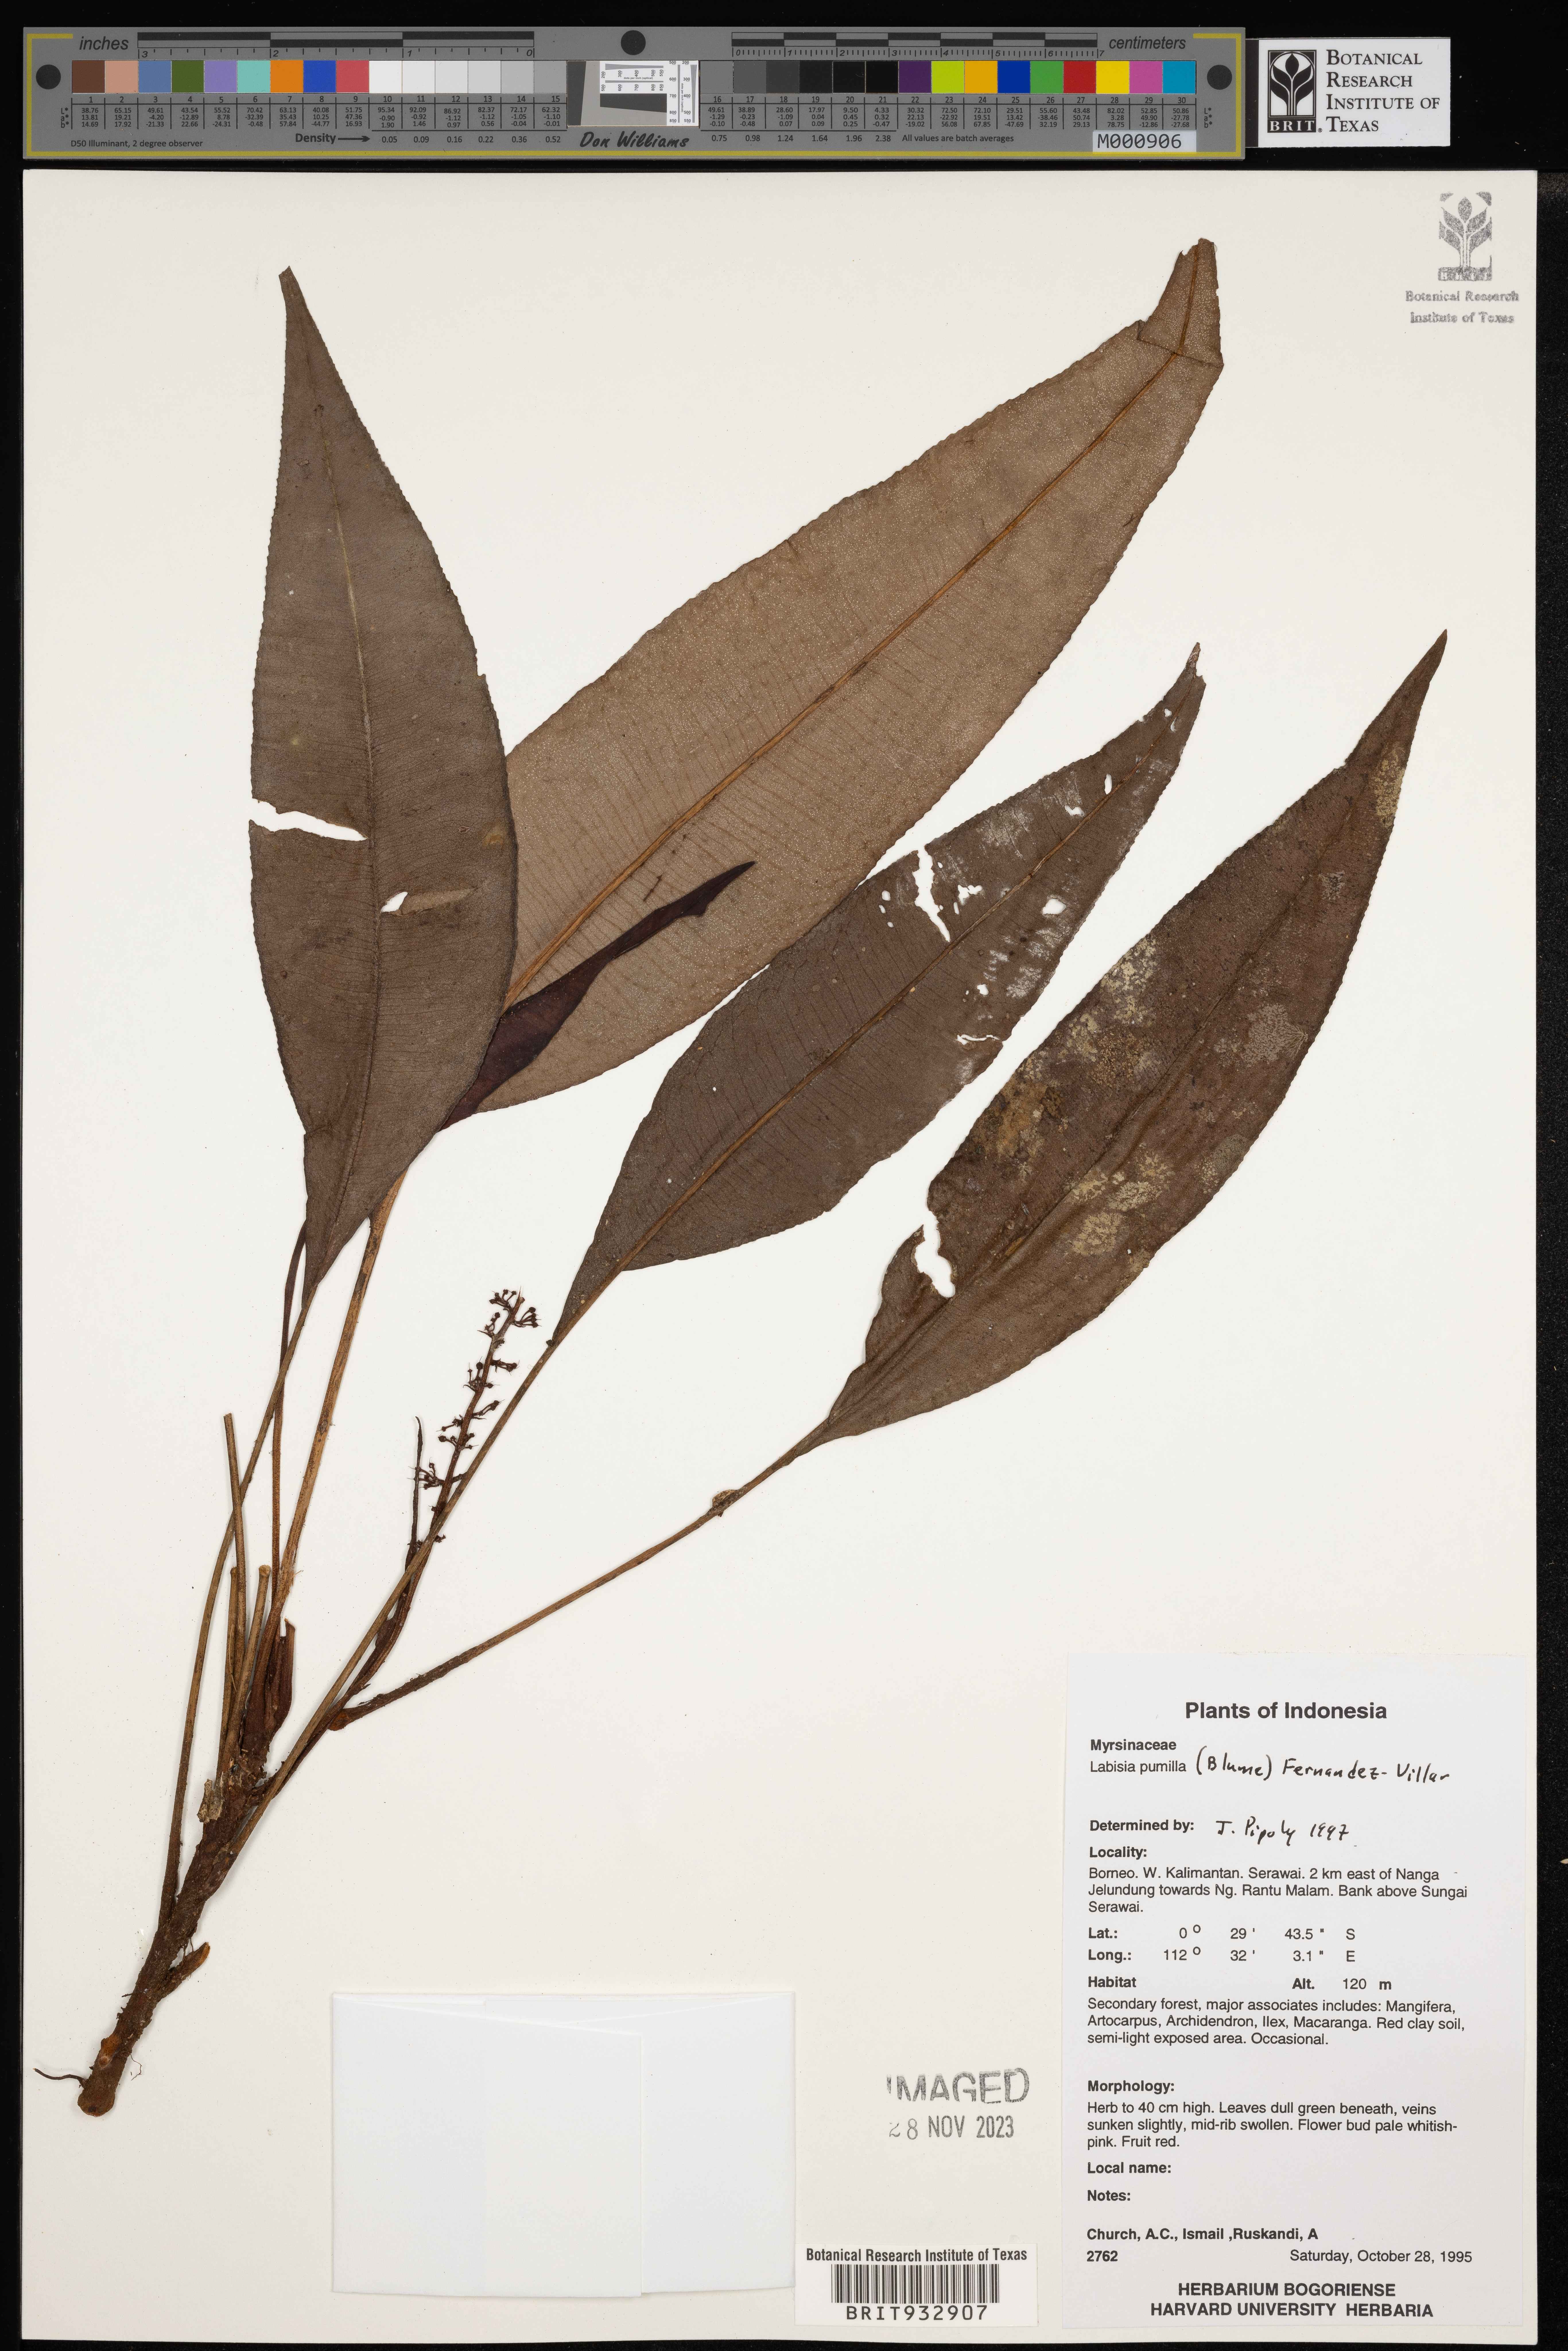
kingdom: Plantae
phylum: Tracheophyta
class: Magnoliopsida
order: Ericales
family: Primulaceae
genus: Labisia
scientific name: Labisia
